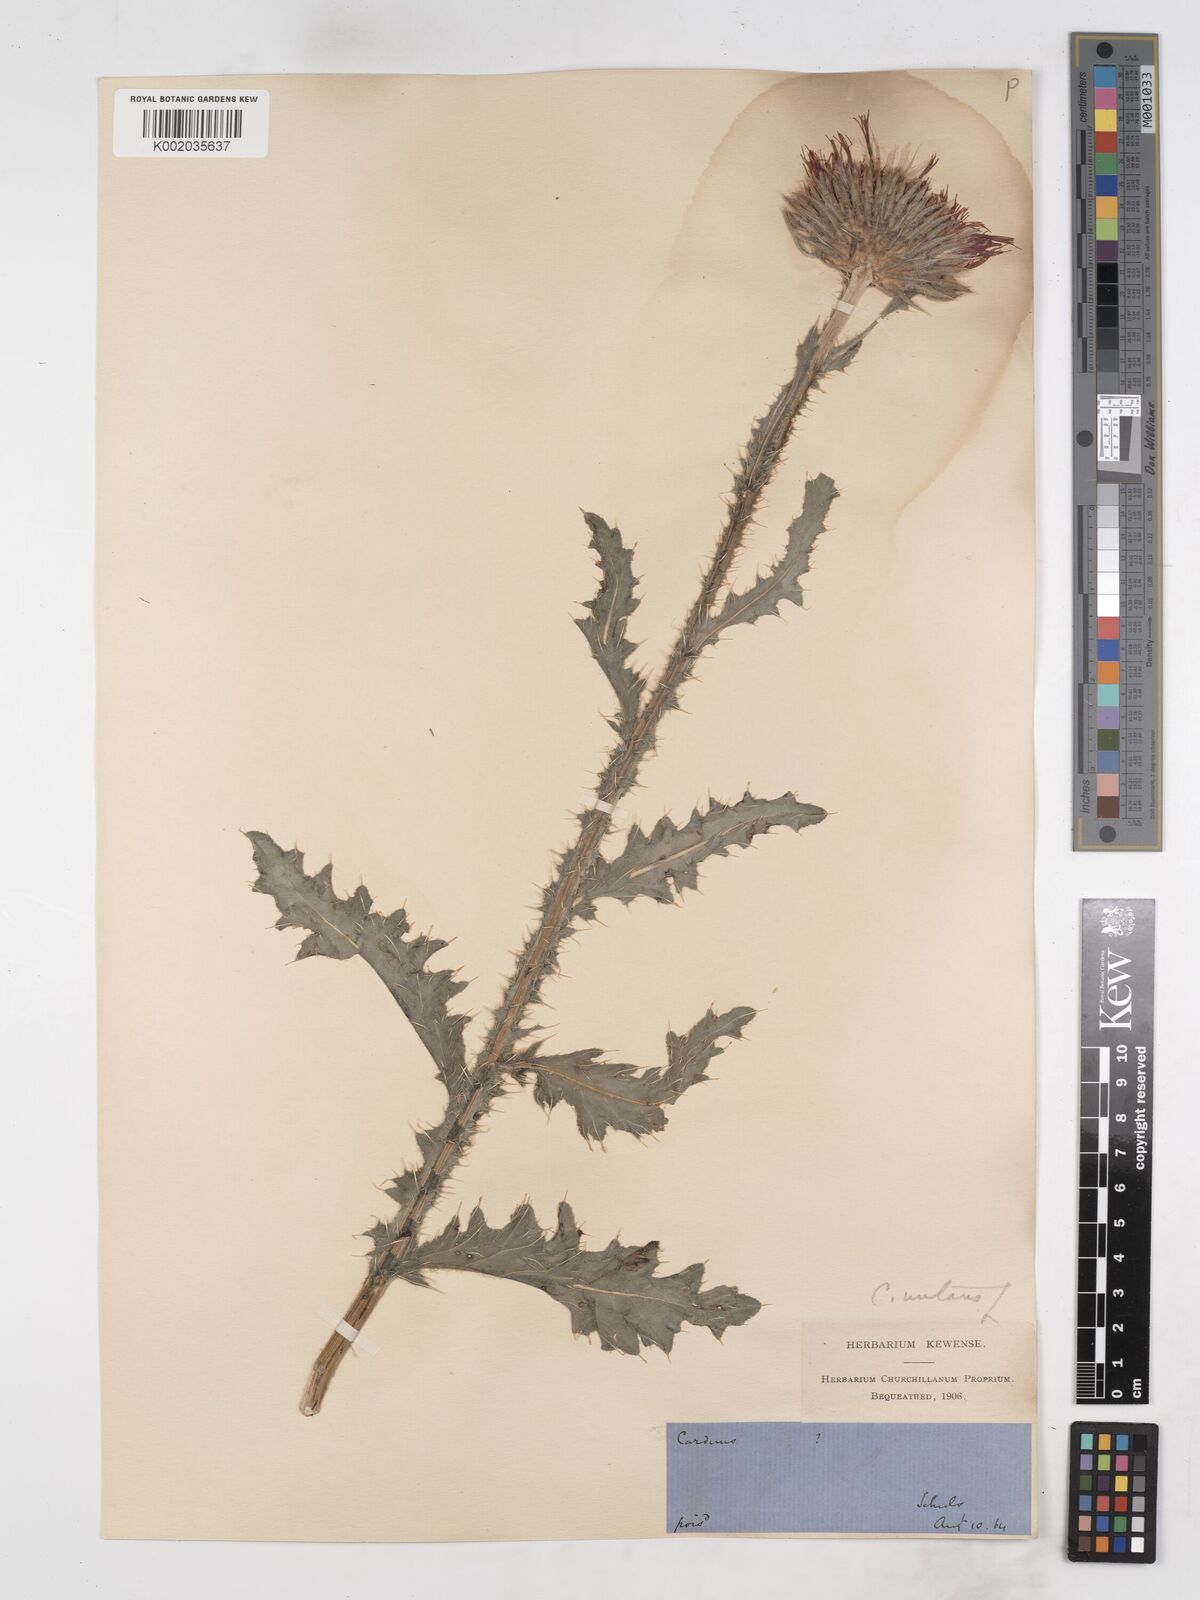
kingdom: Plantae
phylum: Tracheophyta
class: Magnoliopsida
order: Asterales
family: Asteraceae
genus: Carduus
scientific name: Carduus nutans
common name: Musk thistle
